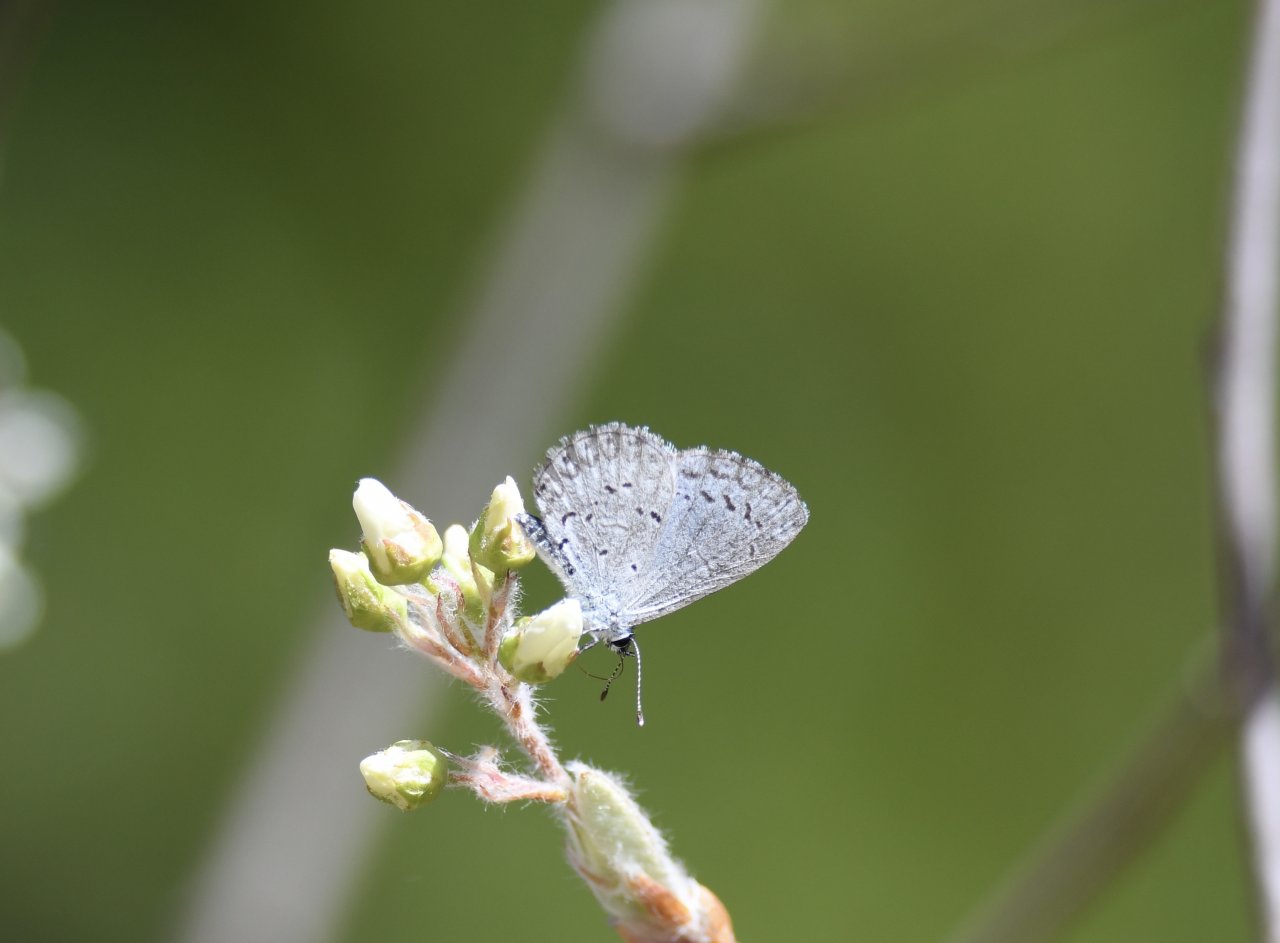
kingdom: Animalia
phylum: Arthropoda
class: Insecta
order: Lepidoptera
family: Lycaenidae
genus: Cyaniris
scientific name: Cyaniris neglecta
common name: Summer Azure
